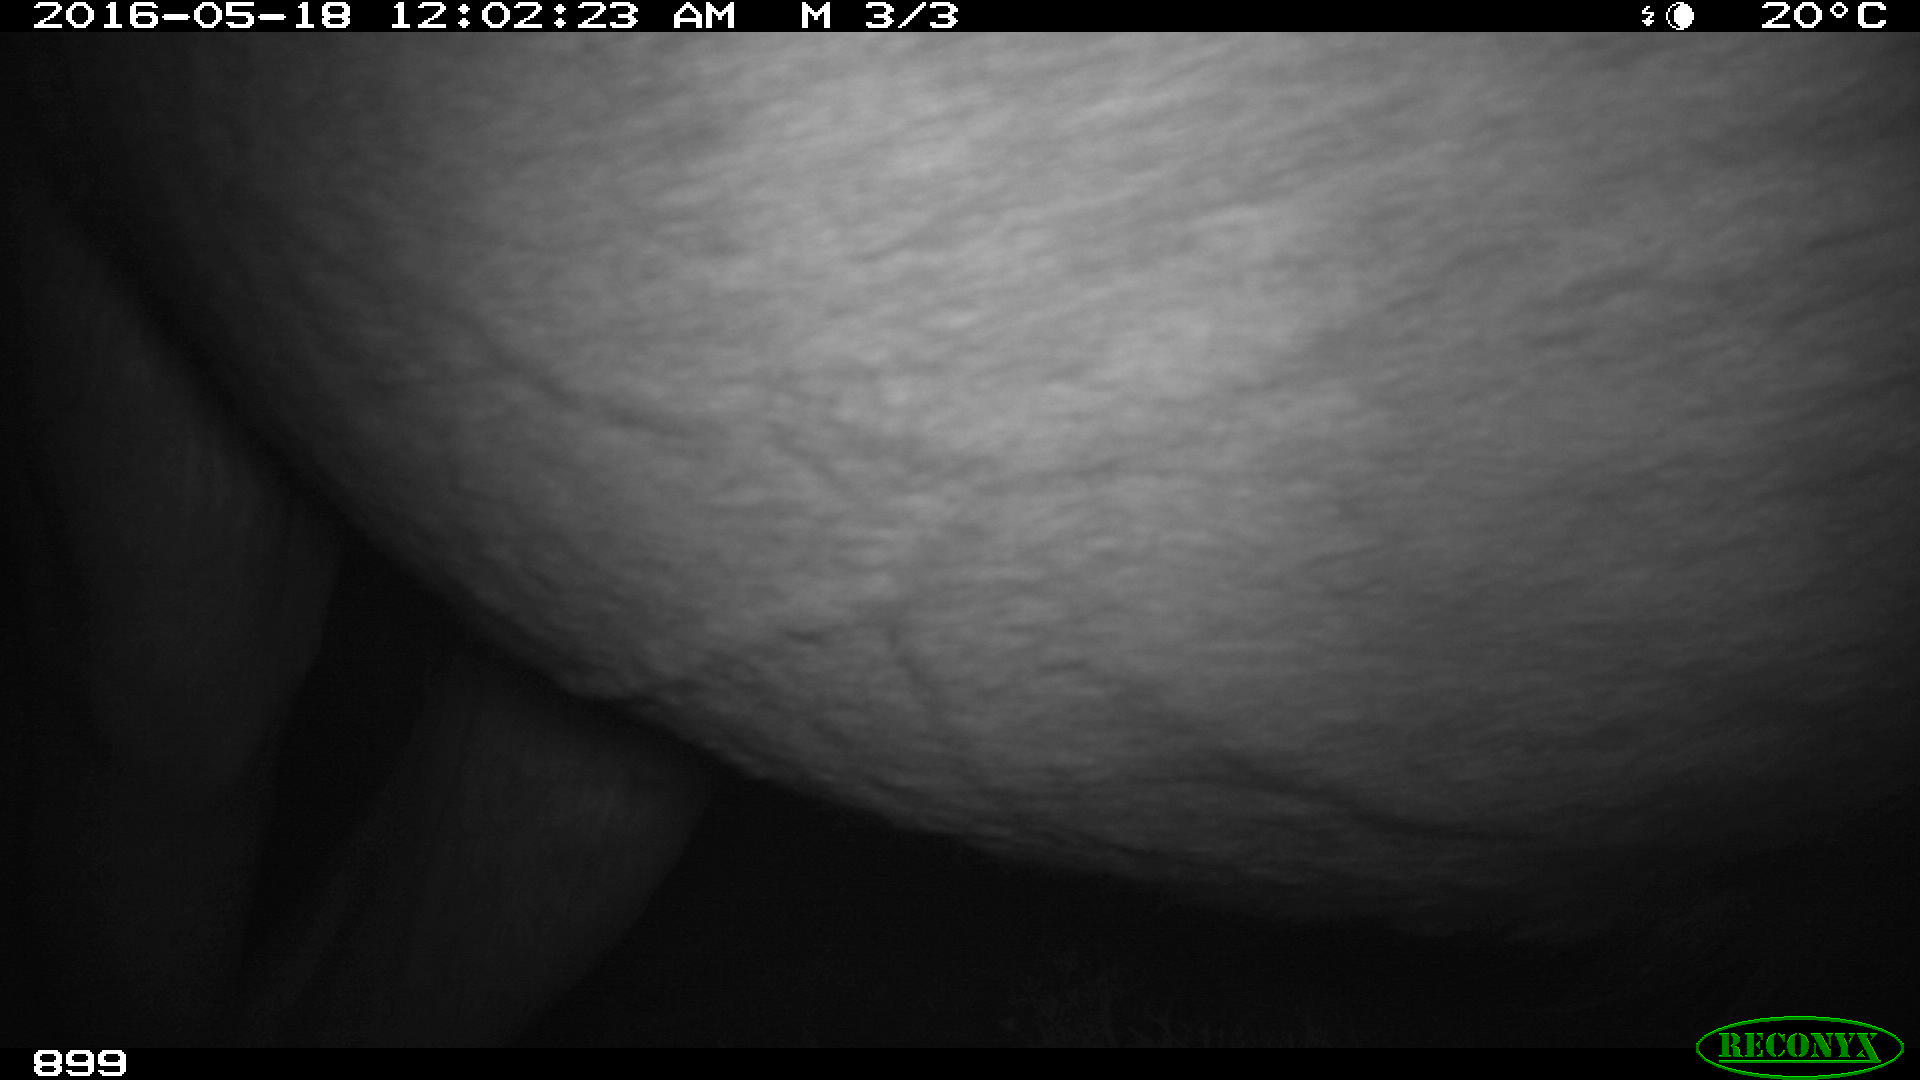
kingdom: Animalia
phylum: Chordata
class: Mammalia
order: Perissodactyla
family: Equidae
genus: Equus
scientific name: Equus caballus
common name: Horse
